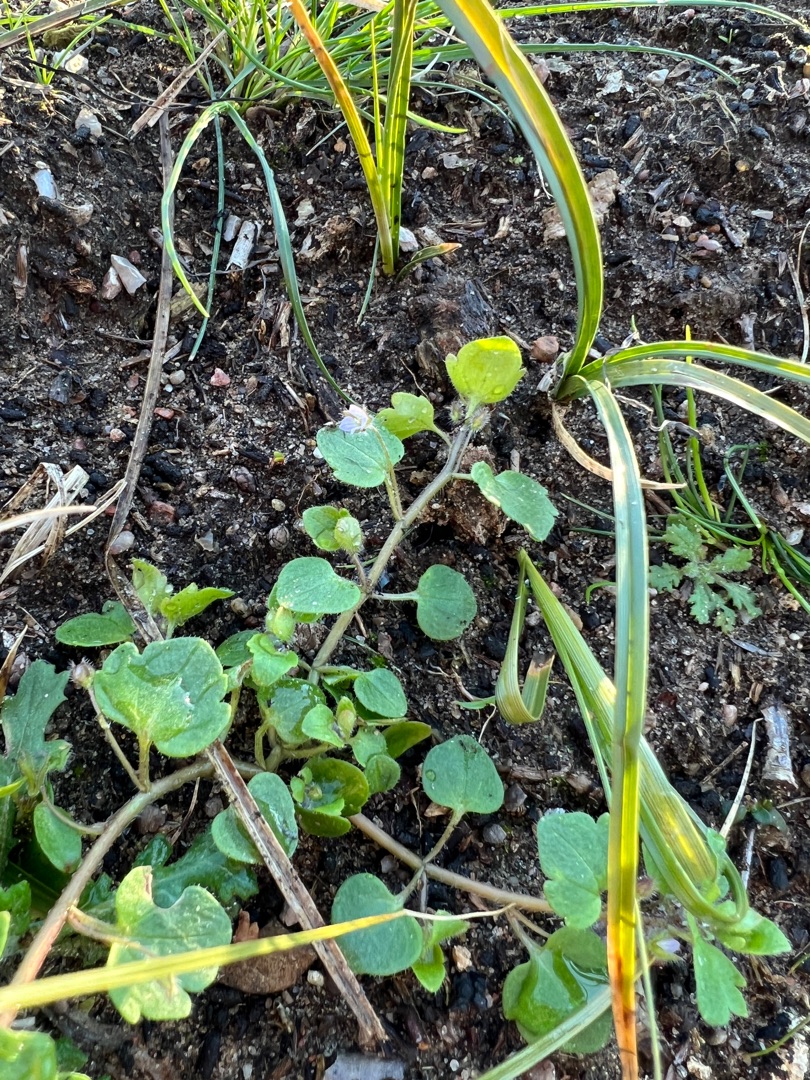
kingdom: Plantae
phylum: Tracheophyta
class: Magnoliopsida
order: Lamiales
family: Plantaginaceae
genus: Veronica
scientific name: Veronica sublobata
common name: Krat-ærenpris
